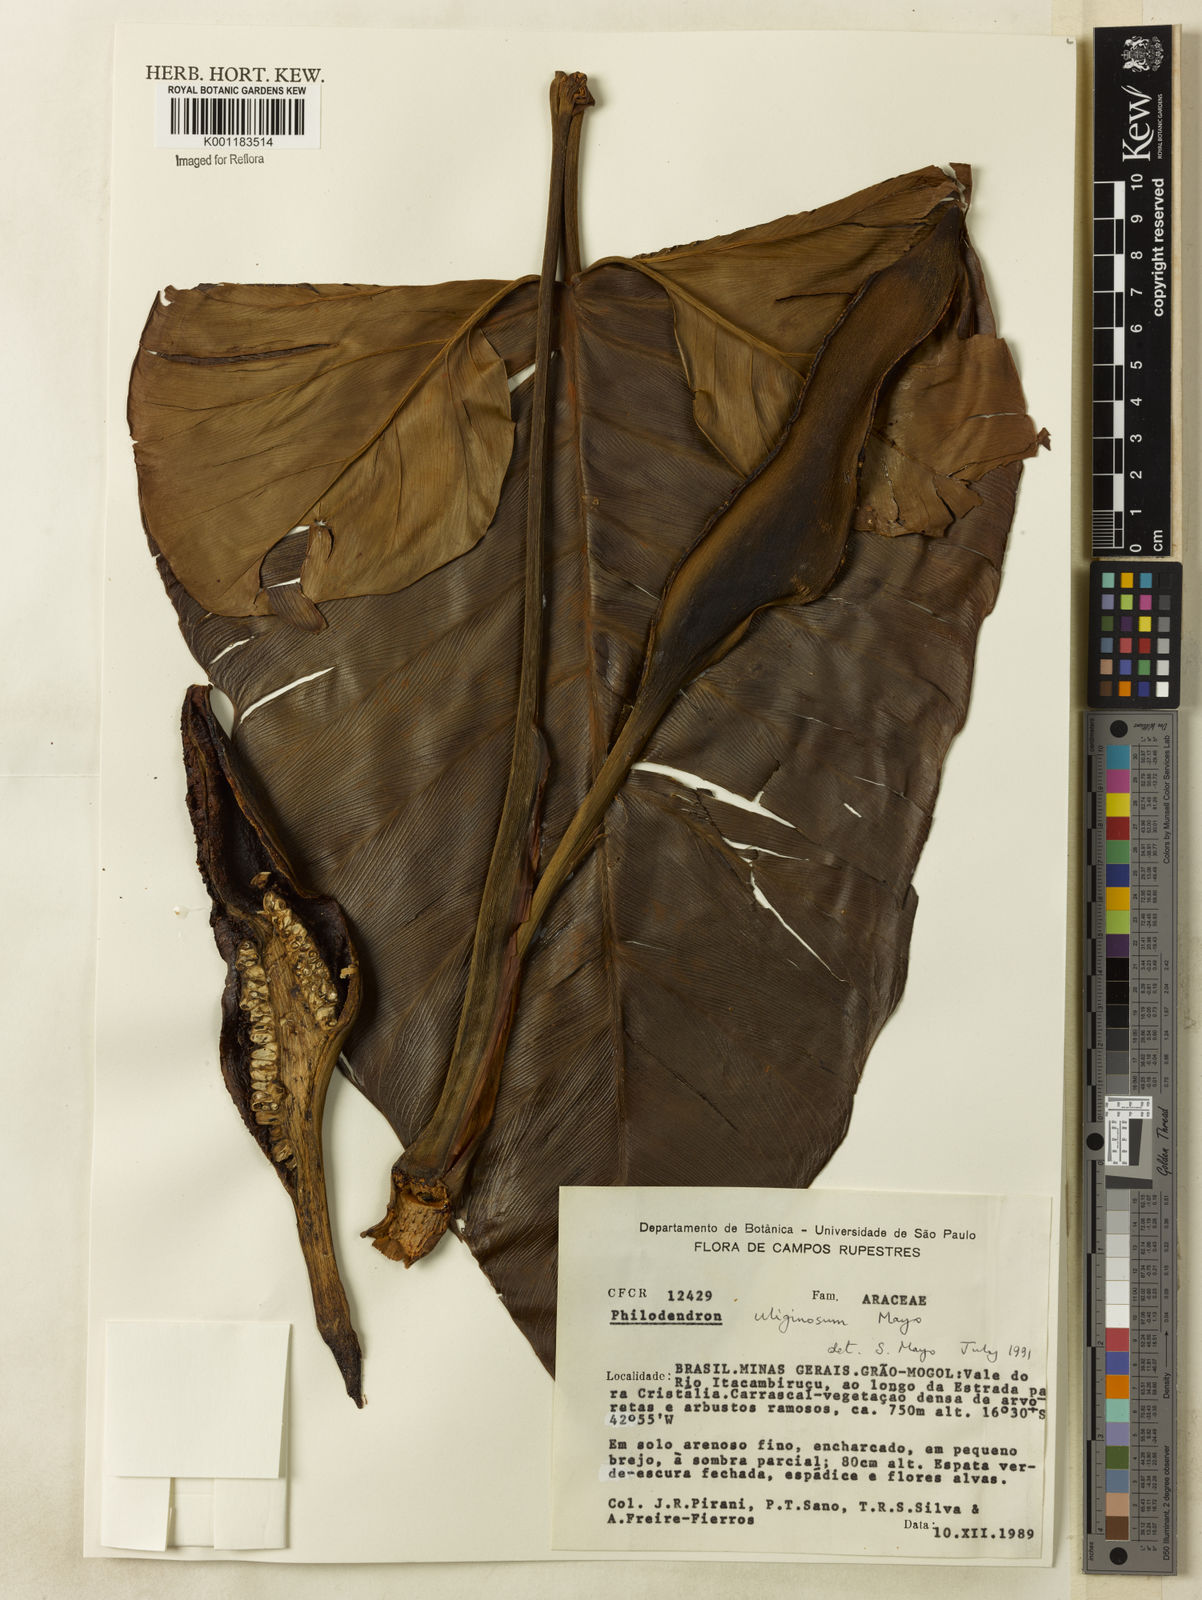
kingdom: Plantae
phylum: Tracheophyta
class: Liliopsida
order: Alismatales
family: Araceae
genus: Thaumatophyllum
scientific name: Thaumatophyllum uliginosum
